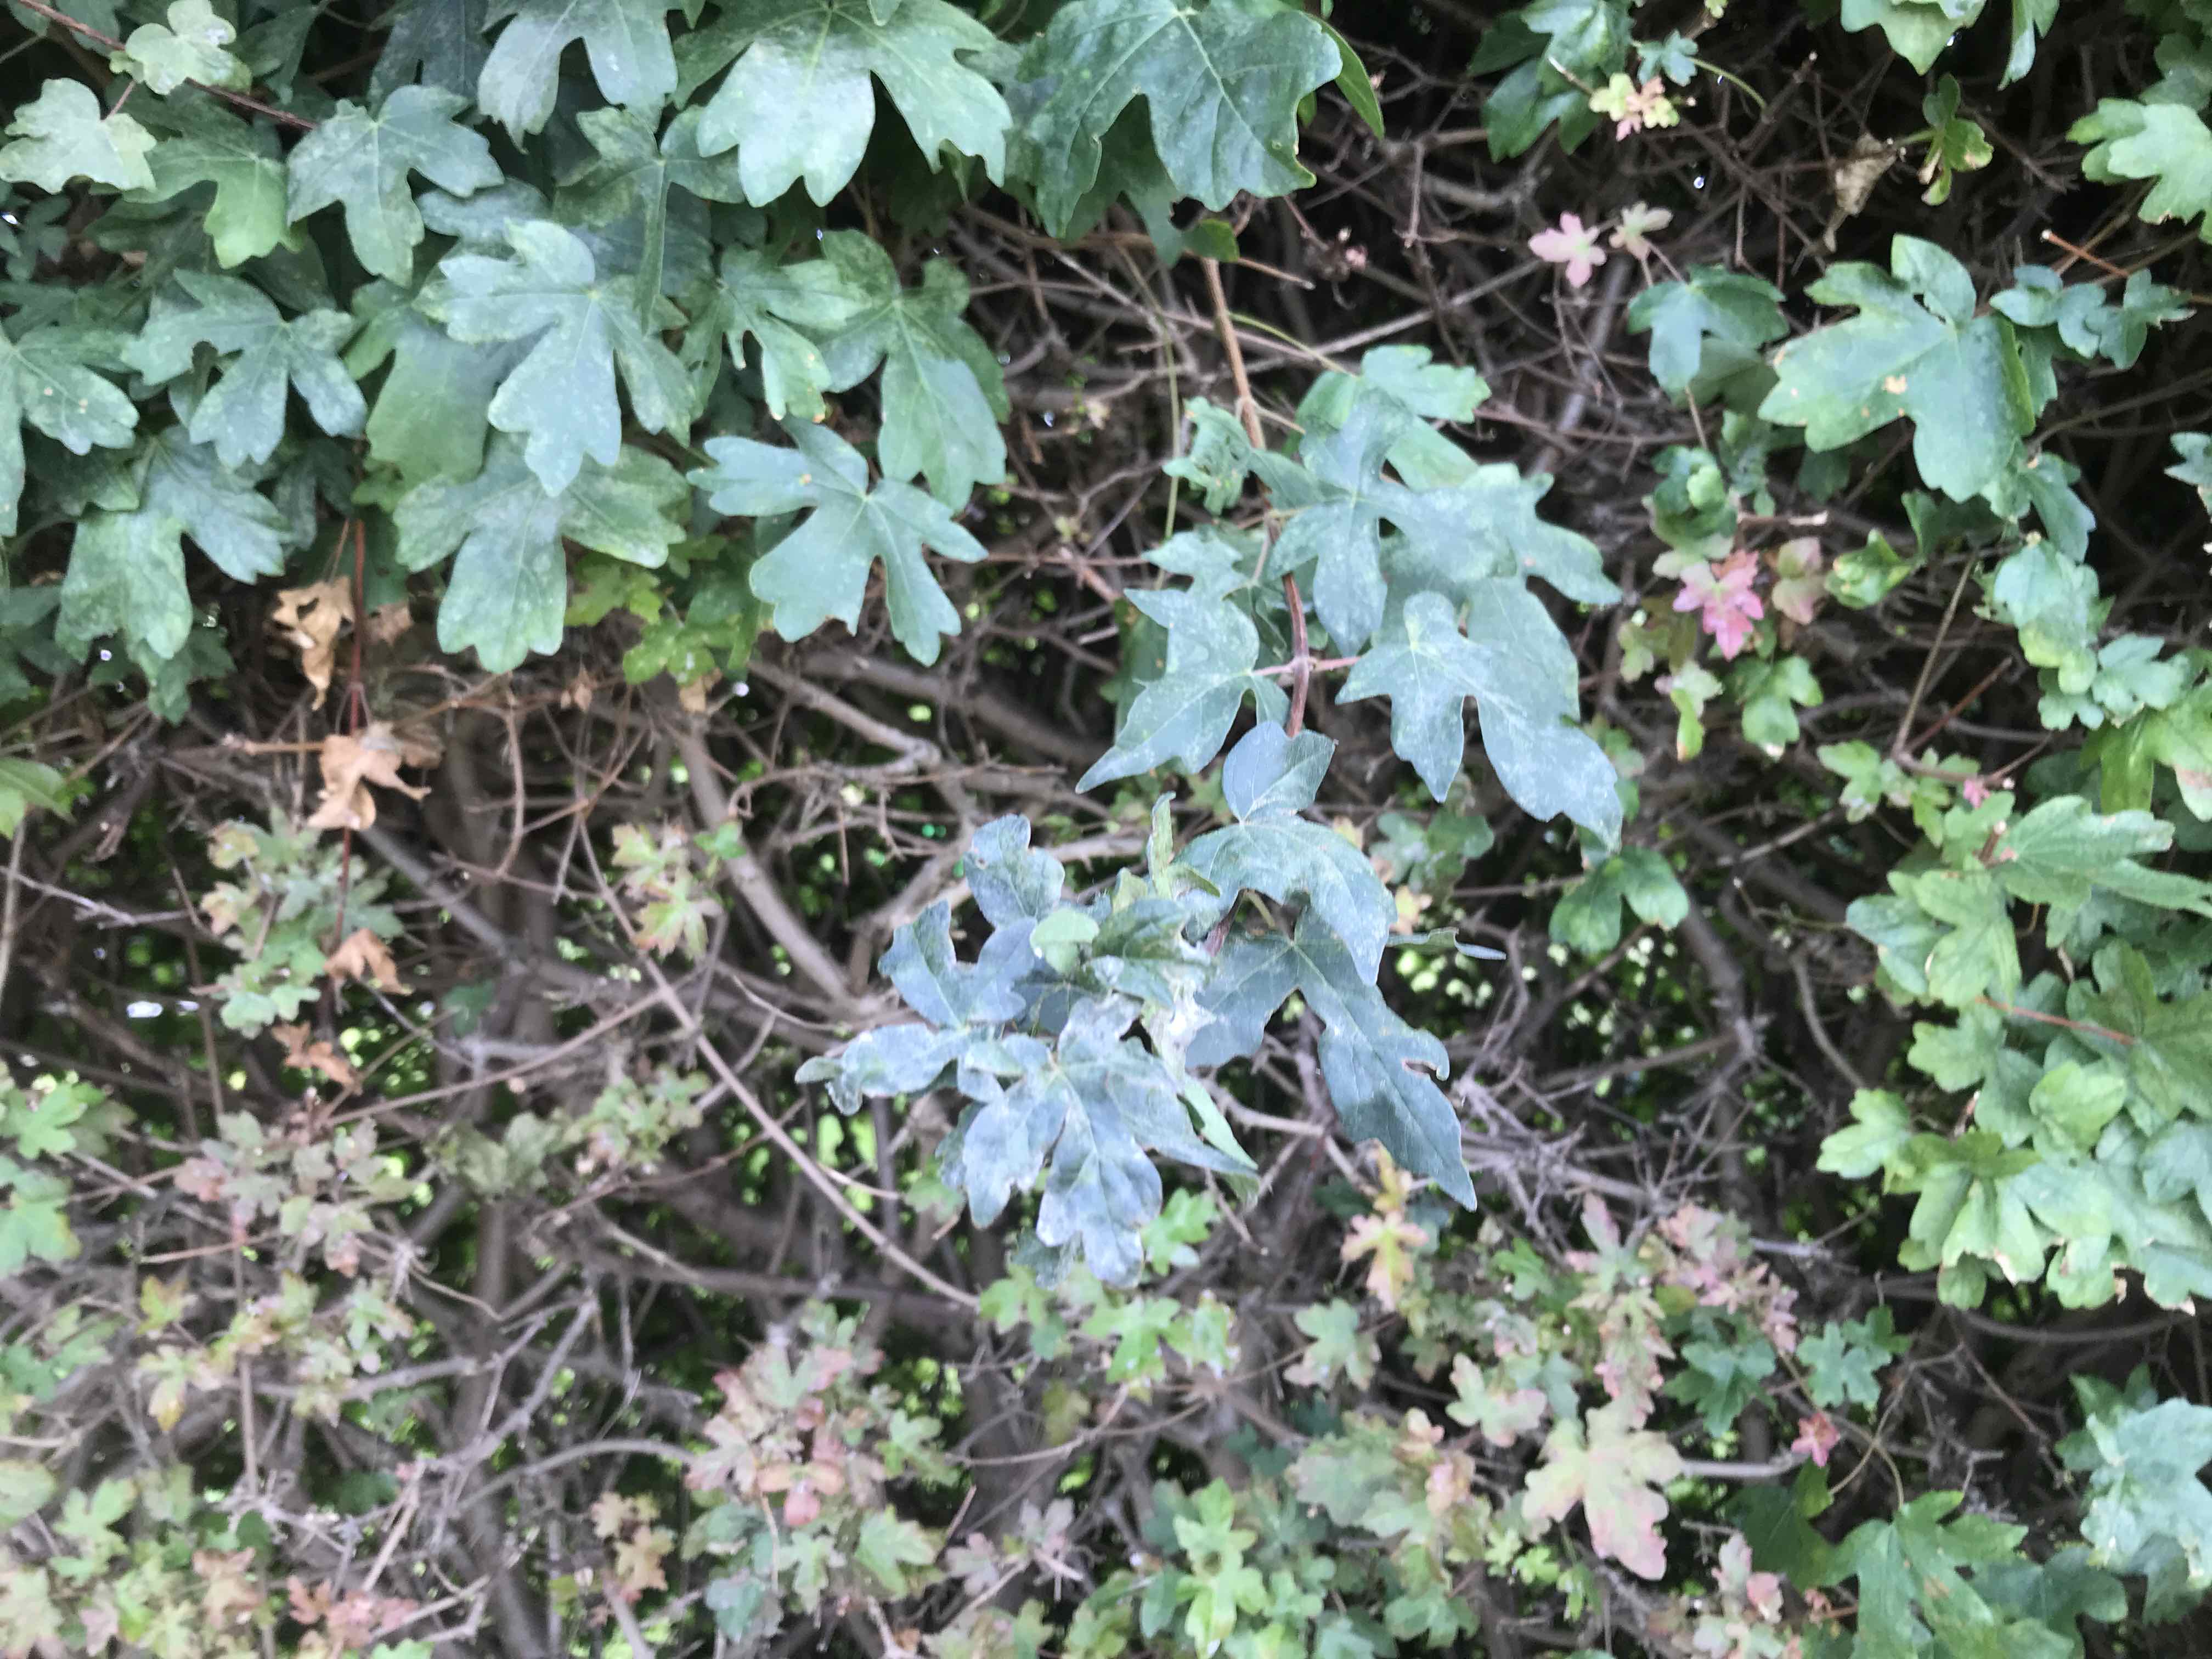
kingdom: Fungi
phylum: Ascomycota
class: Leotiomycetes
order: Helotiales
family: Erysiphaceae
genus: Sawadaea
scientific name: Sawadaea bicornis
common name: Maple mildew
